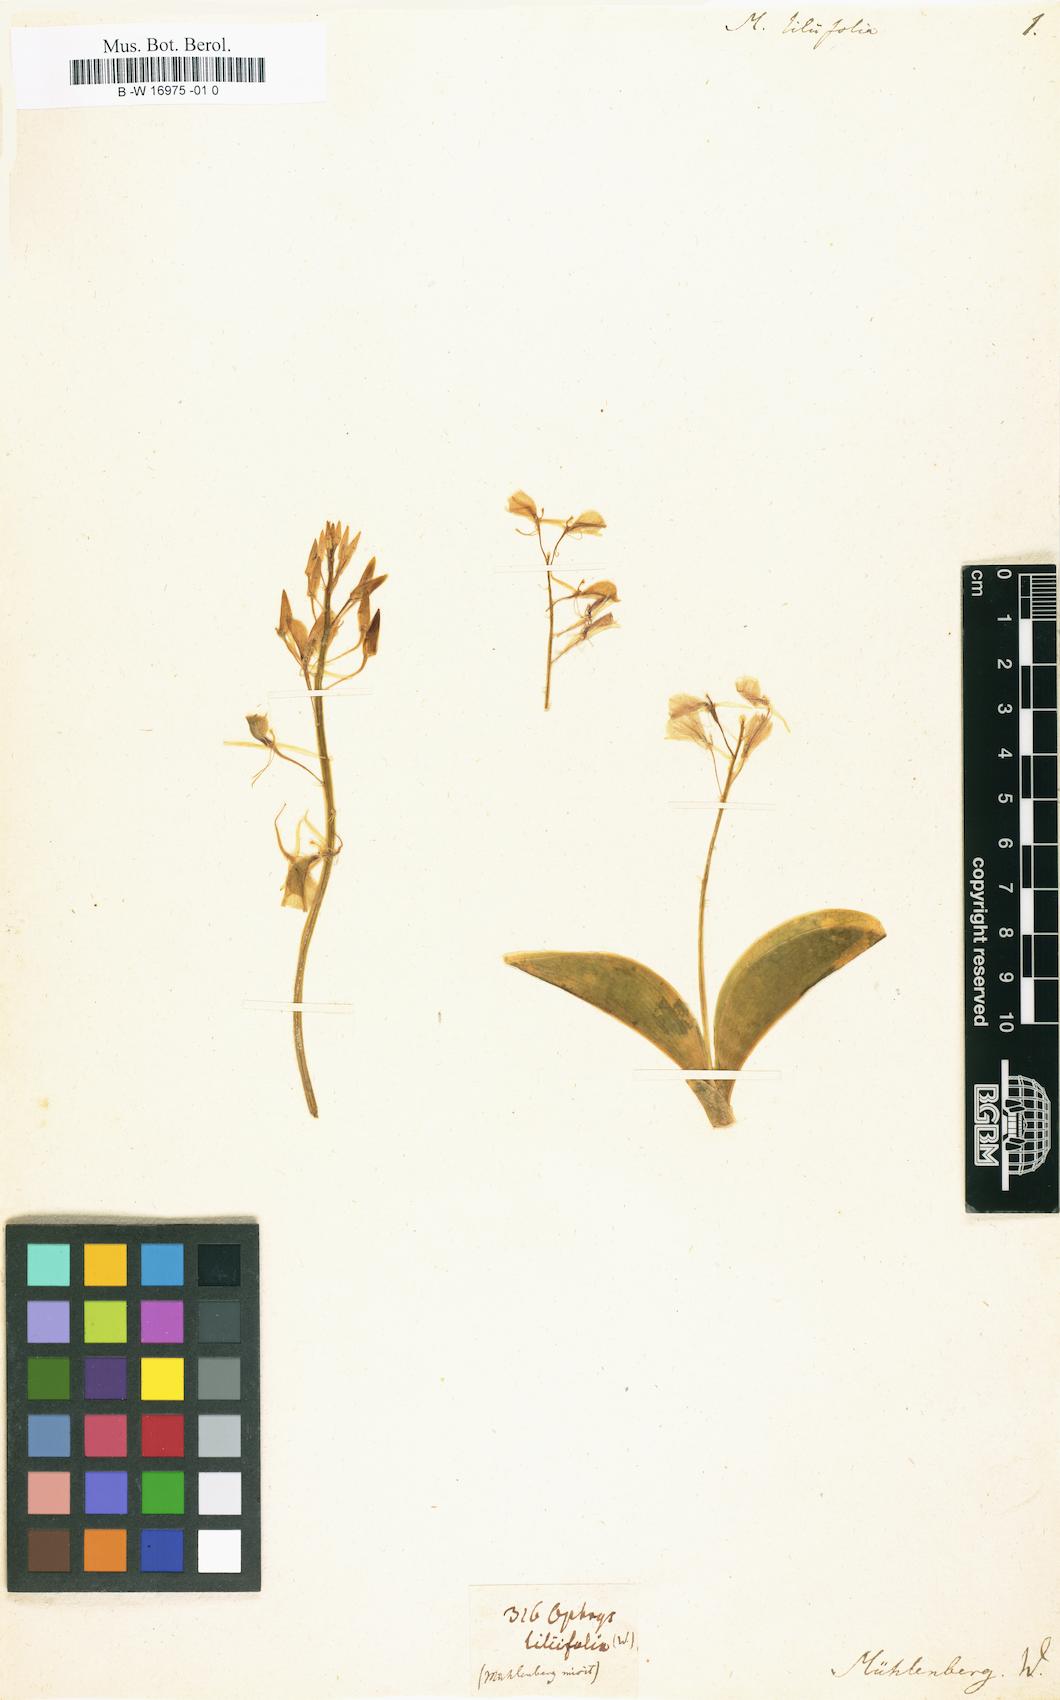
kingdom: Plantae
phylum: Tracheophyta
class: Liliopsida
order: Asparagales
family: Orchidaceae
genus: Liparis
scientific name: Liparis liliifolia
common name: Brown wide-lip orchid
